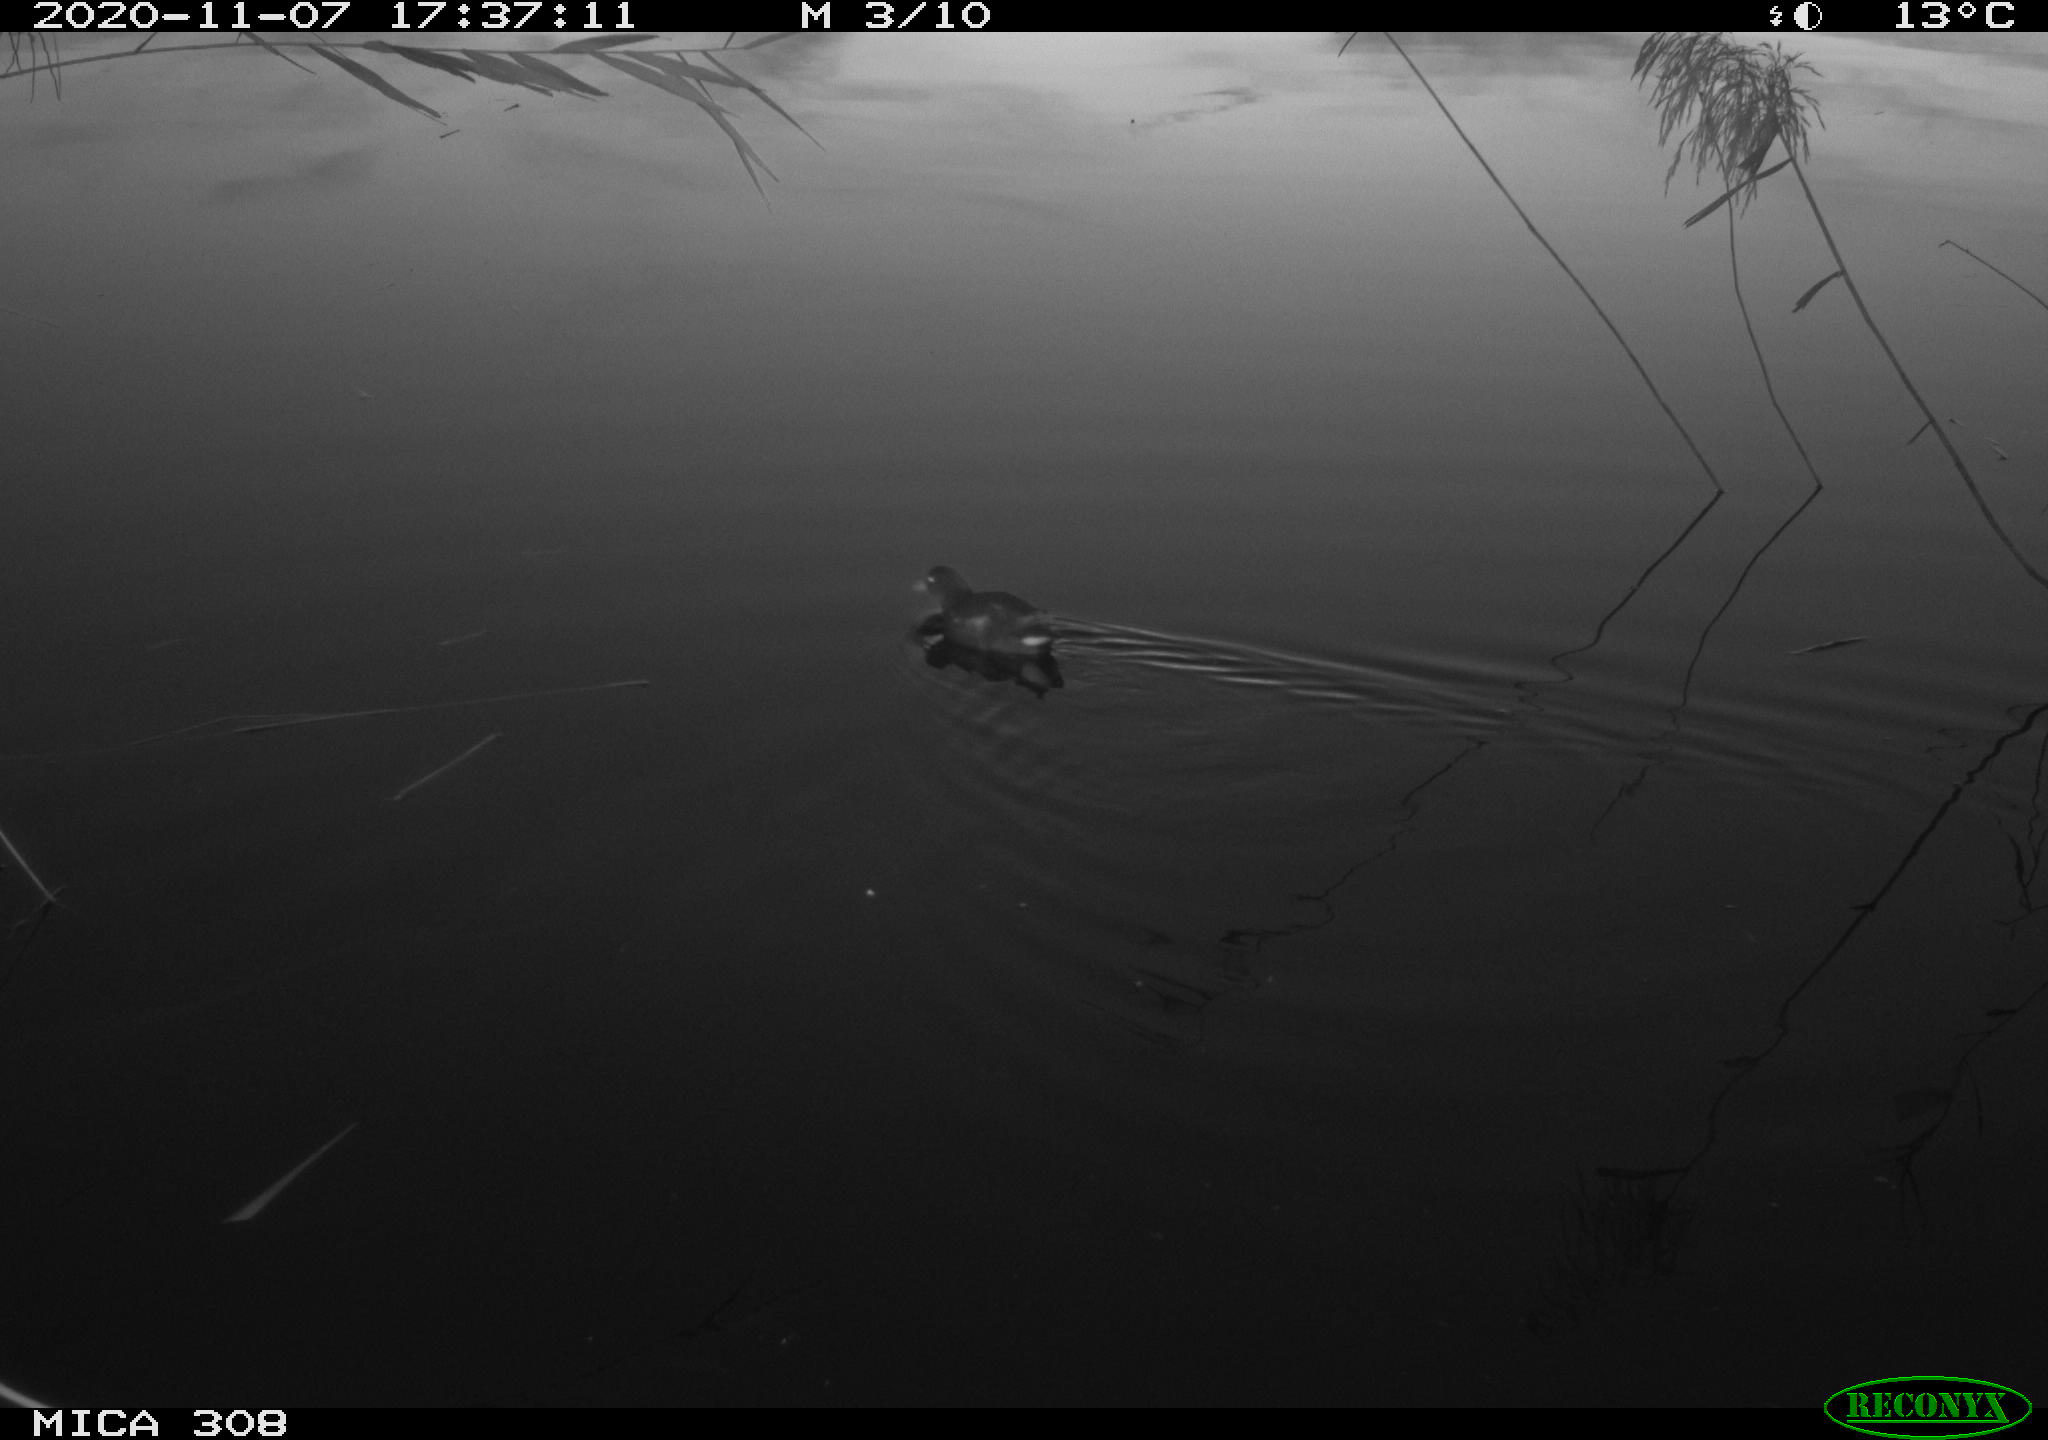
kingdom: Animalia
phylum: Chordata
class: Aves
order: Gruiformes
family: Rallidae
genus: Gallinula
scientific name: Gallinula chloropus
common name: Common moorhen
